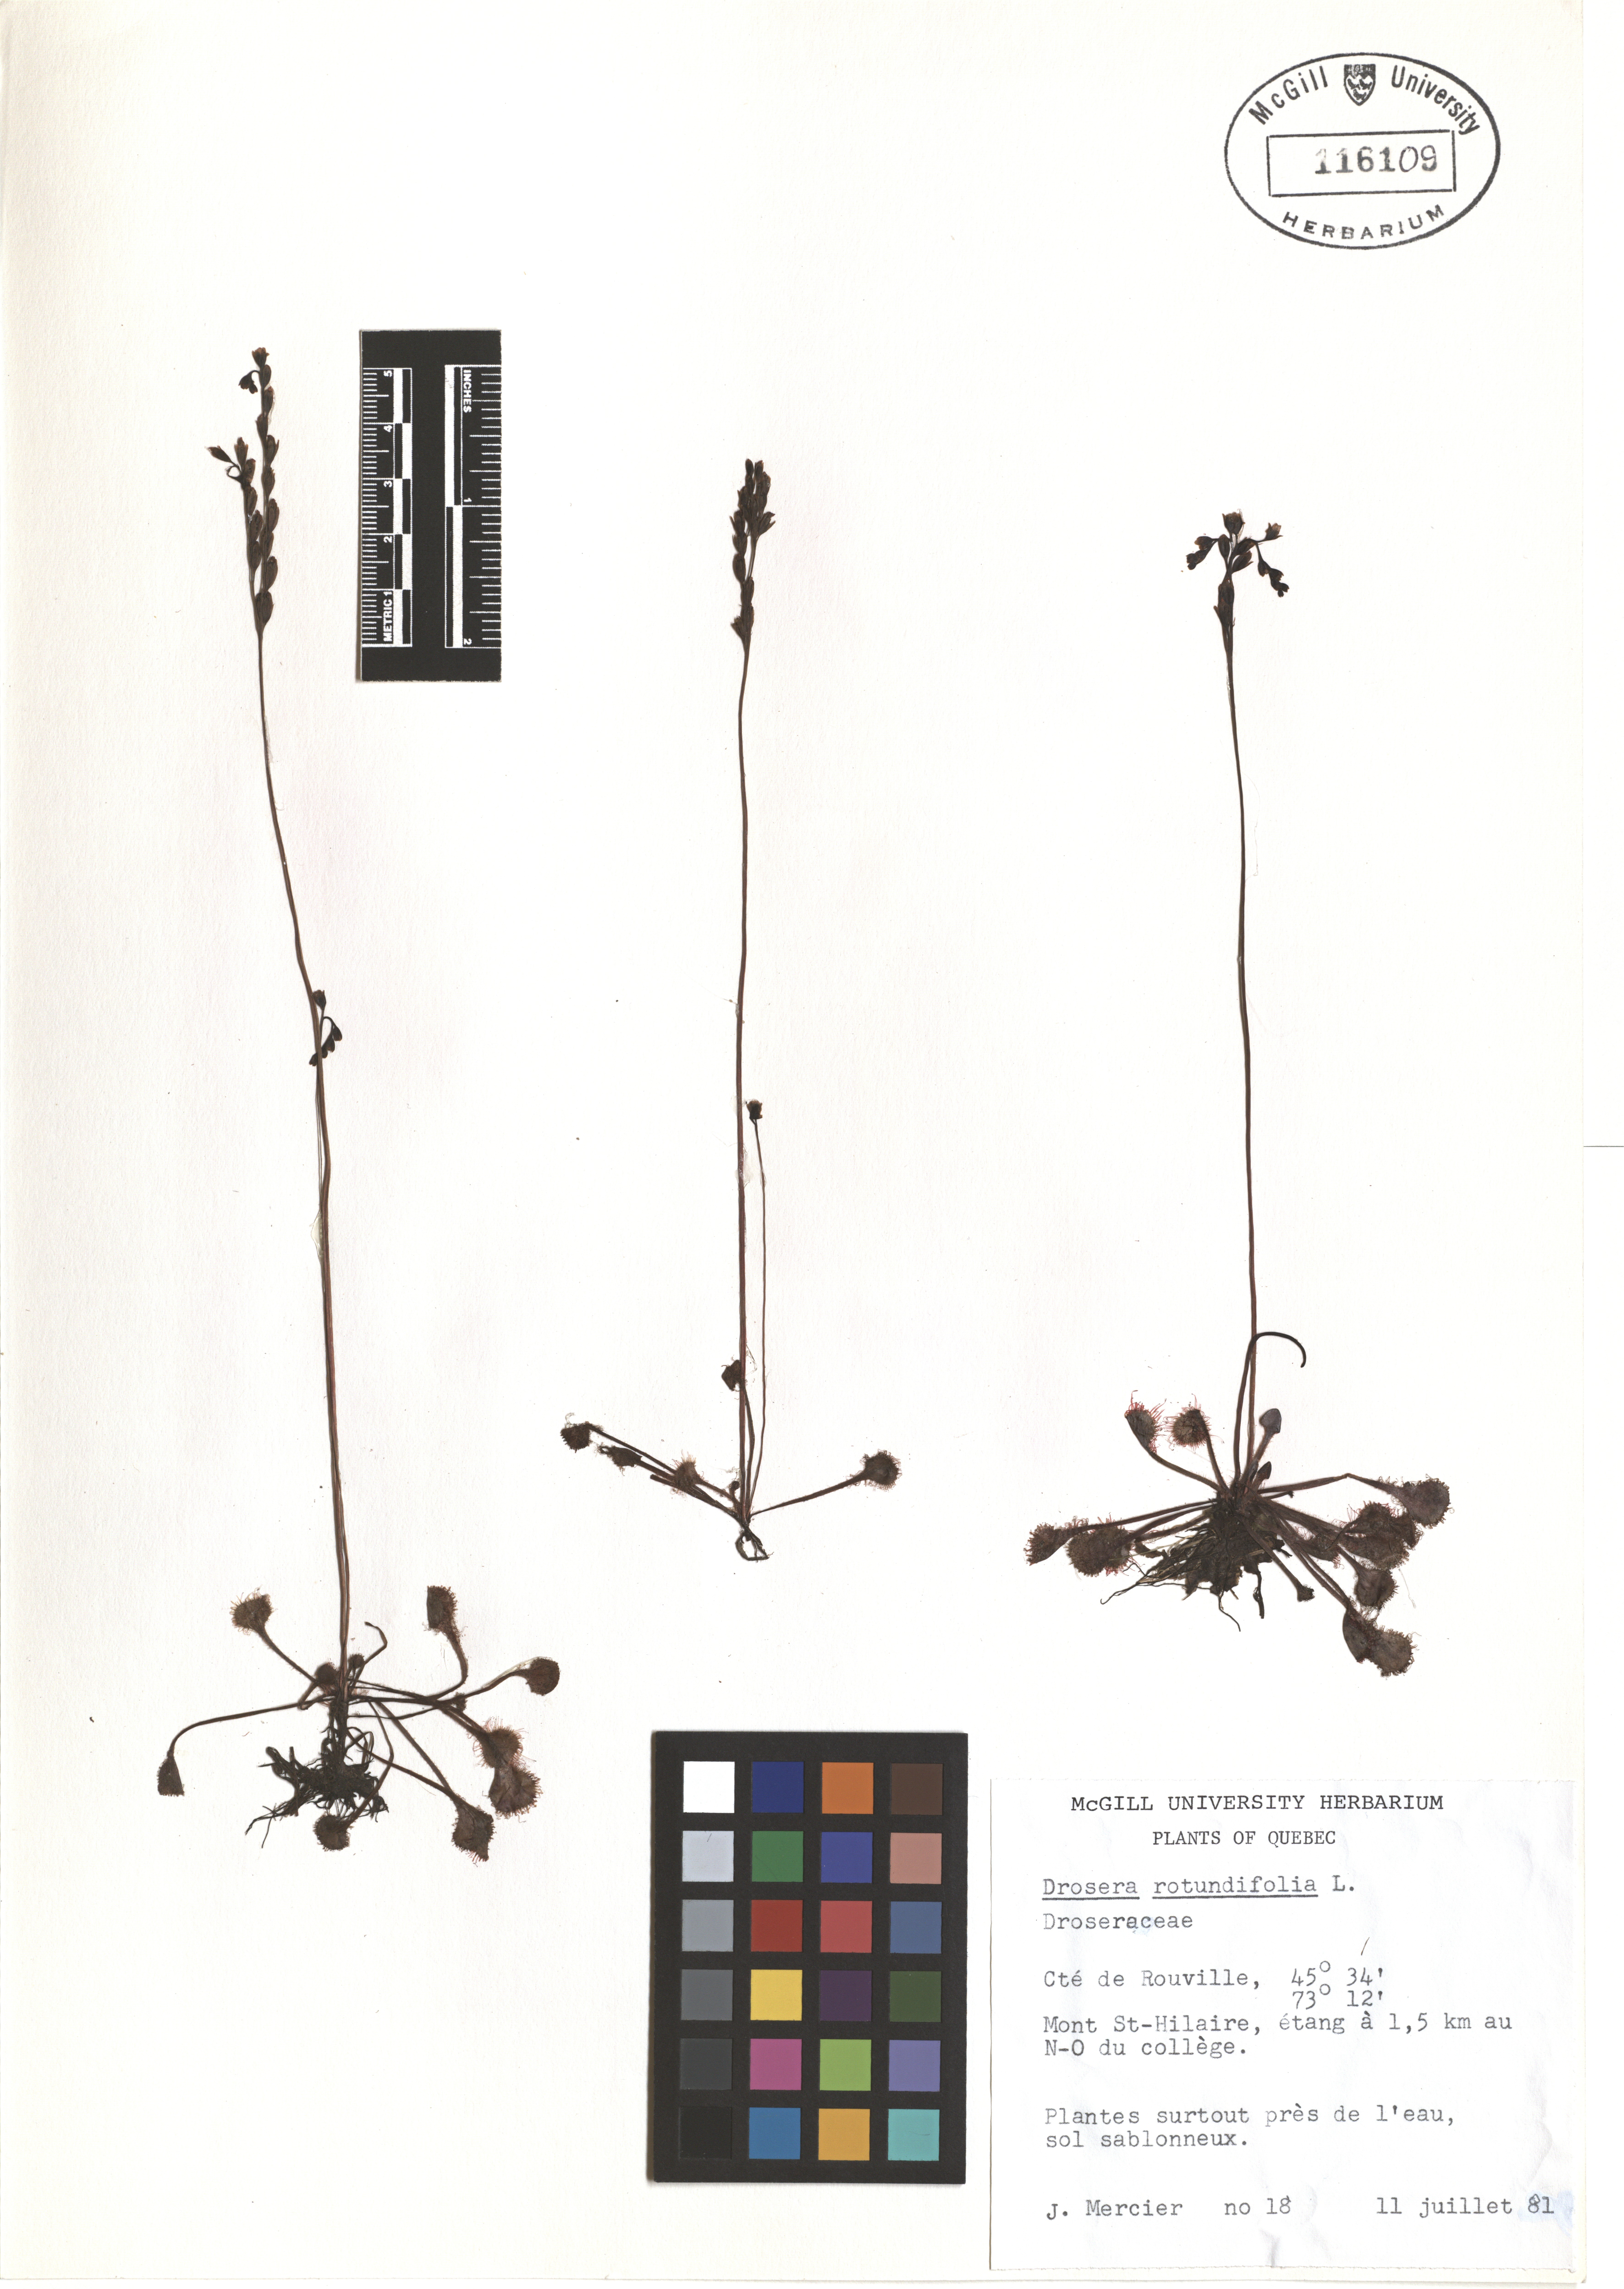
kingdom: Plantae
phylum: Tracheophyta
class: Magnoliopsida
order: Caryophyllales
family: Droseraceae
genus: Drosera
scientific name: Drosera rotundifolia
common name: Round-leaved sundew
